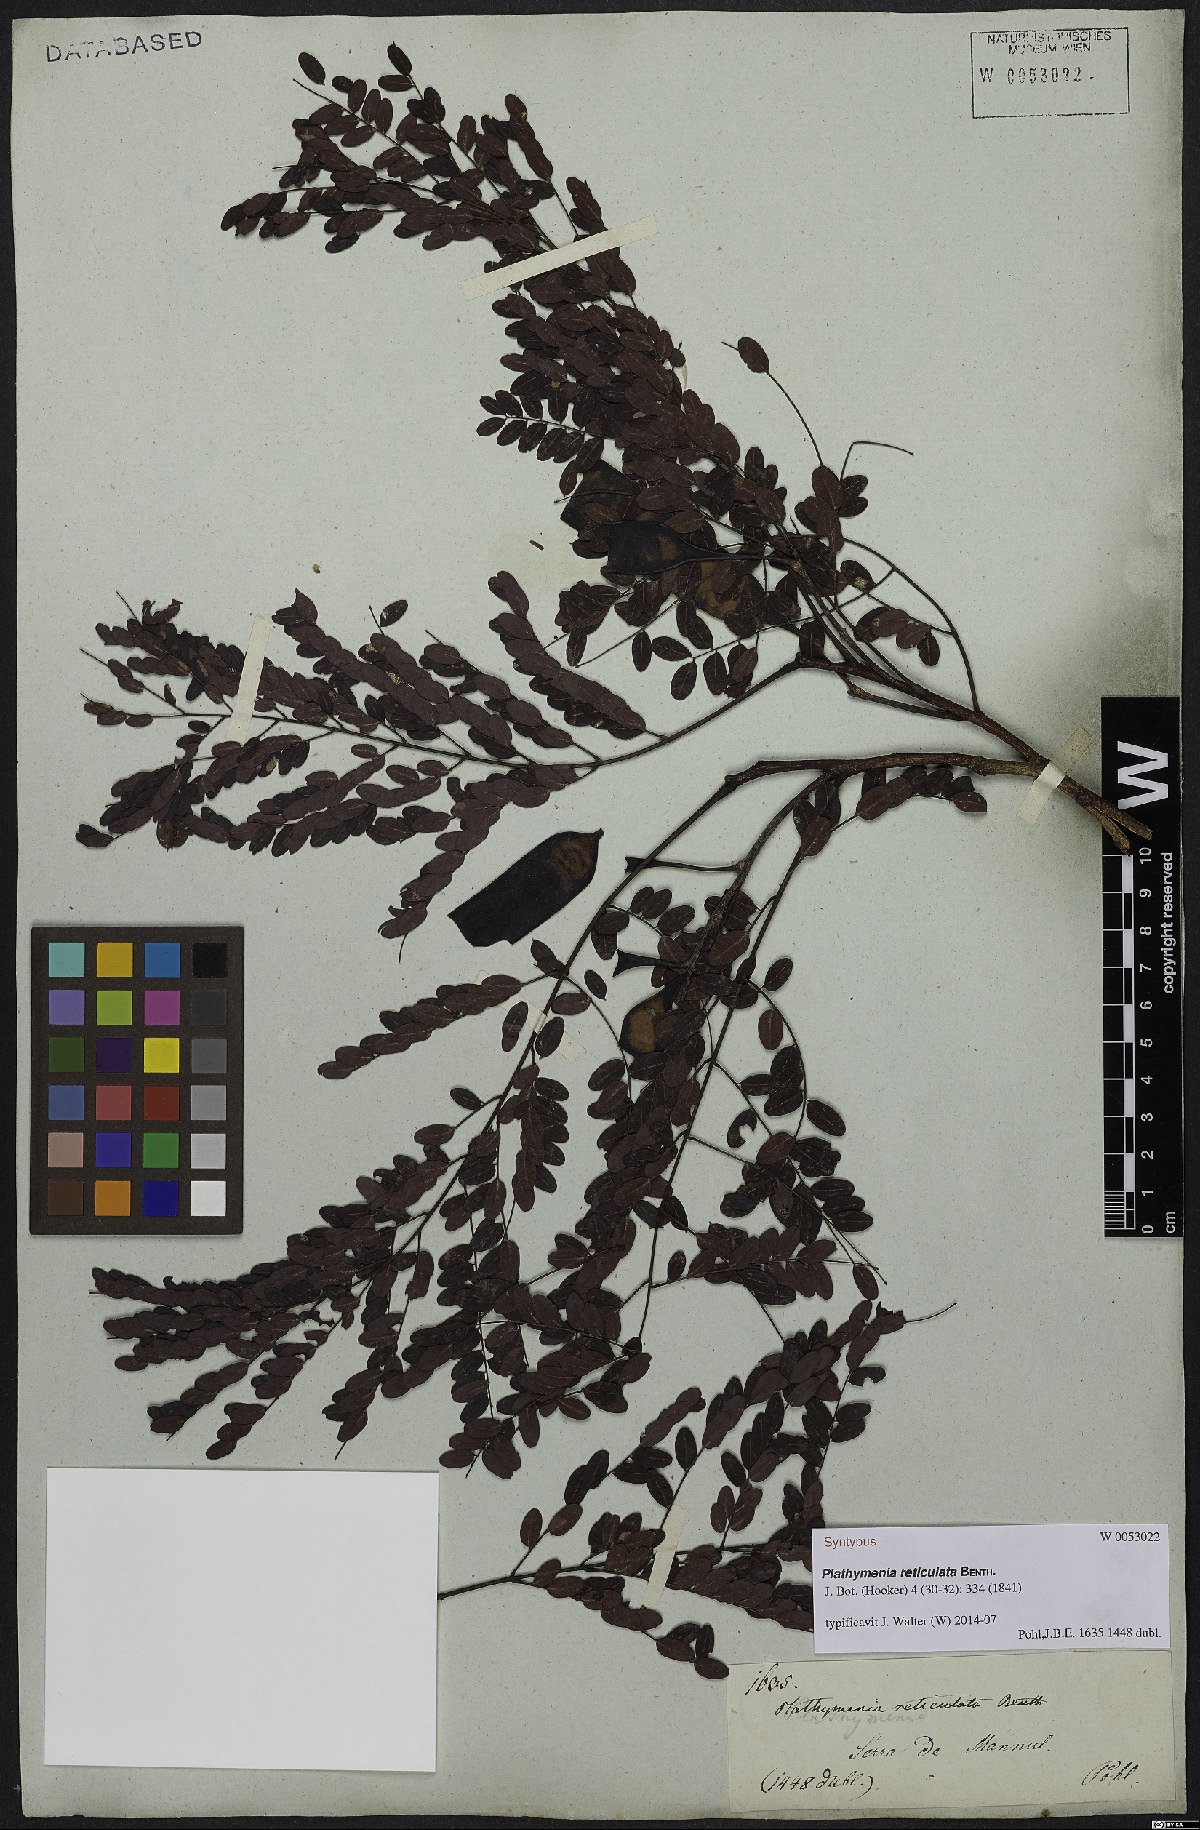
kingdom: Plantae
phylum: Tracheophyta
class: Magnoliopsida
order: Fabales
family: Fabaceae
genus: Plathymenia
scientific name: Plathymenia reticulata
